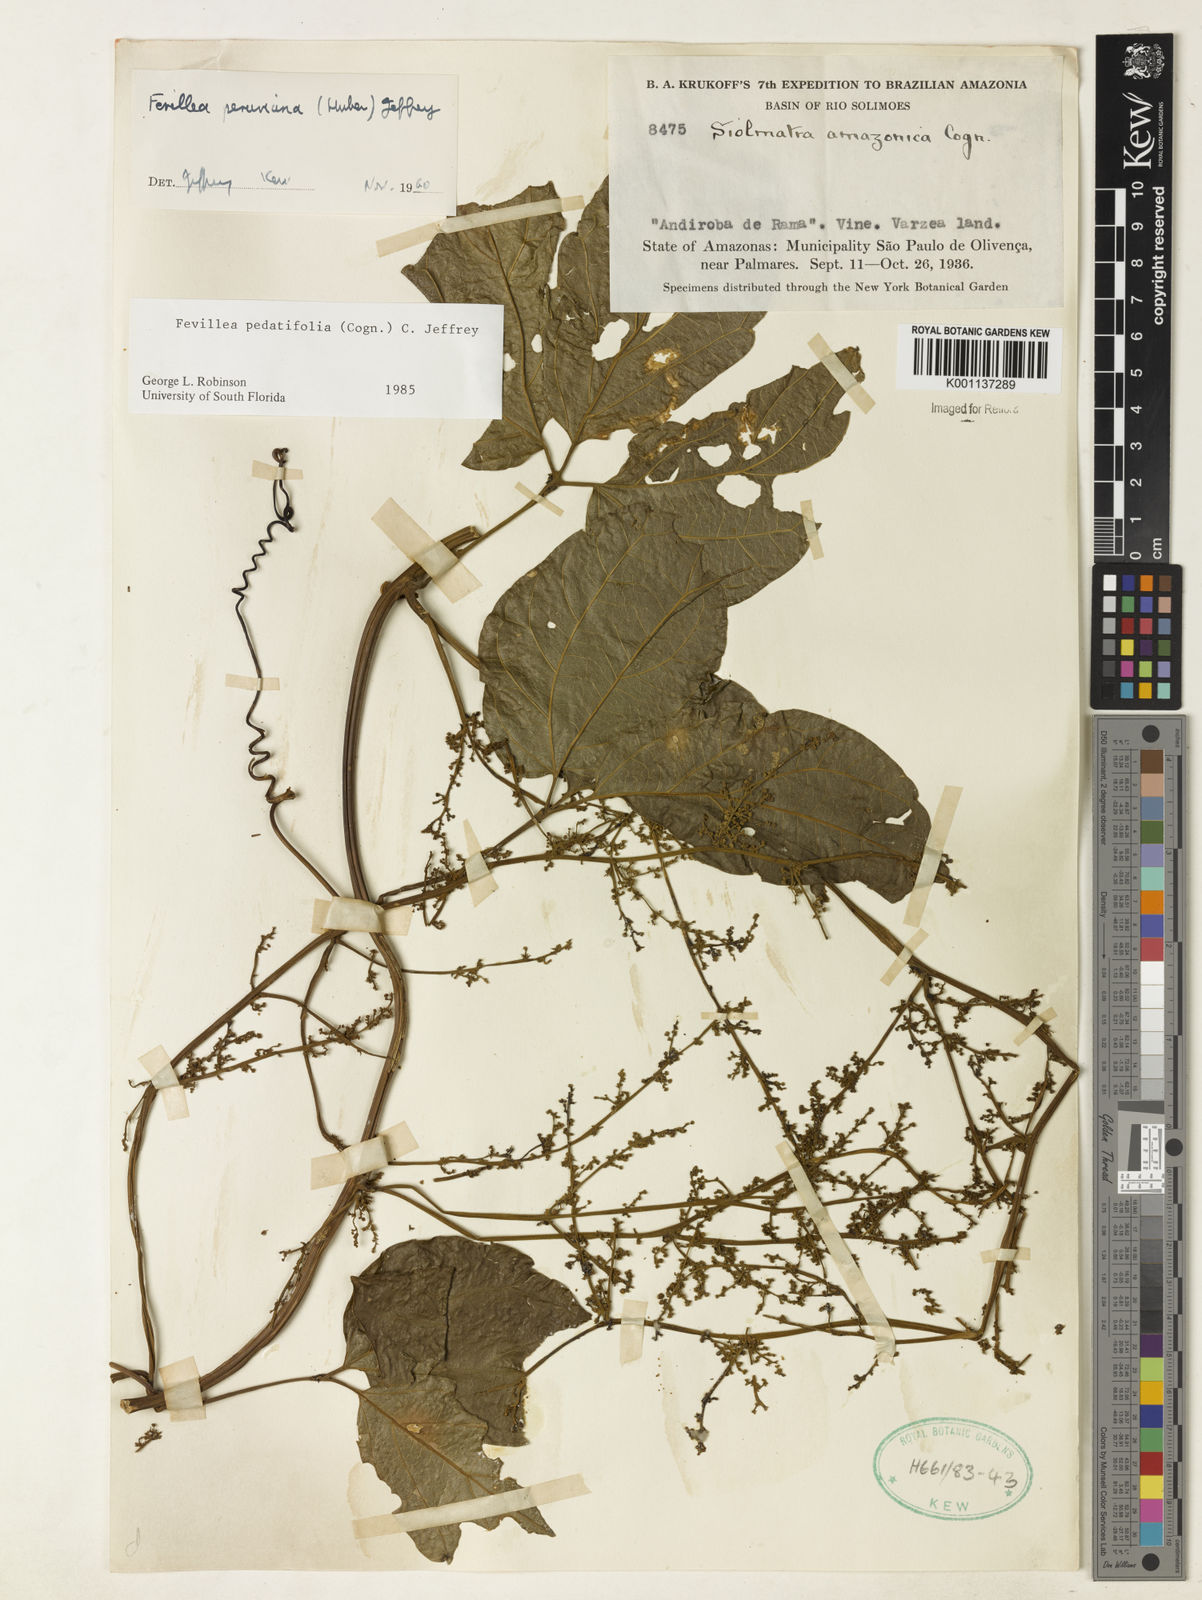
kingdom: Plantae
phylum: Tracheophyta
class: Magnoliopsida
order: Cucurbitales
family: Cucurbitaceae
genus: Fevillea
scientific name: Fevillea pedatifolia
